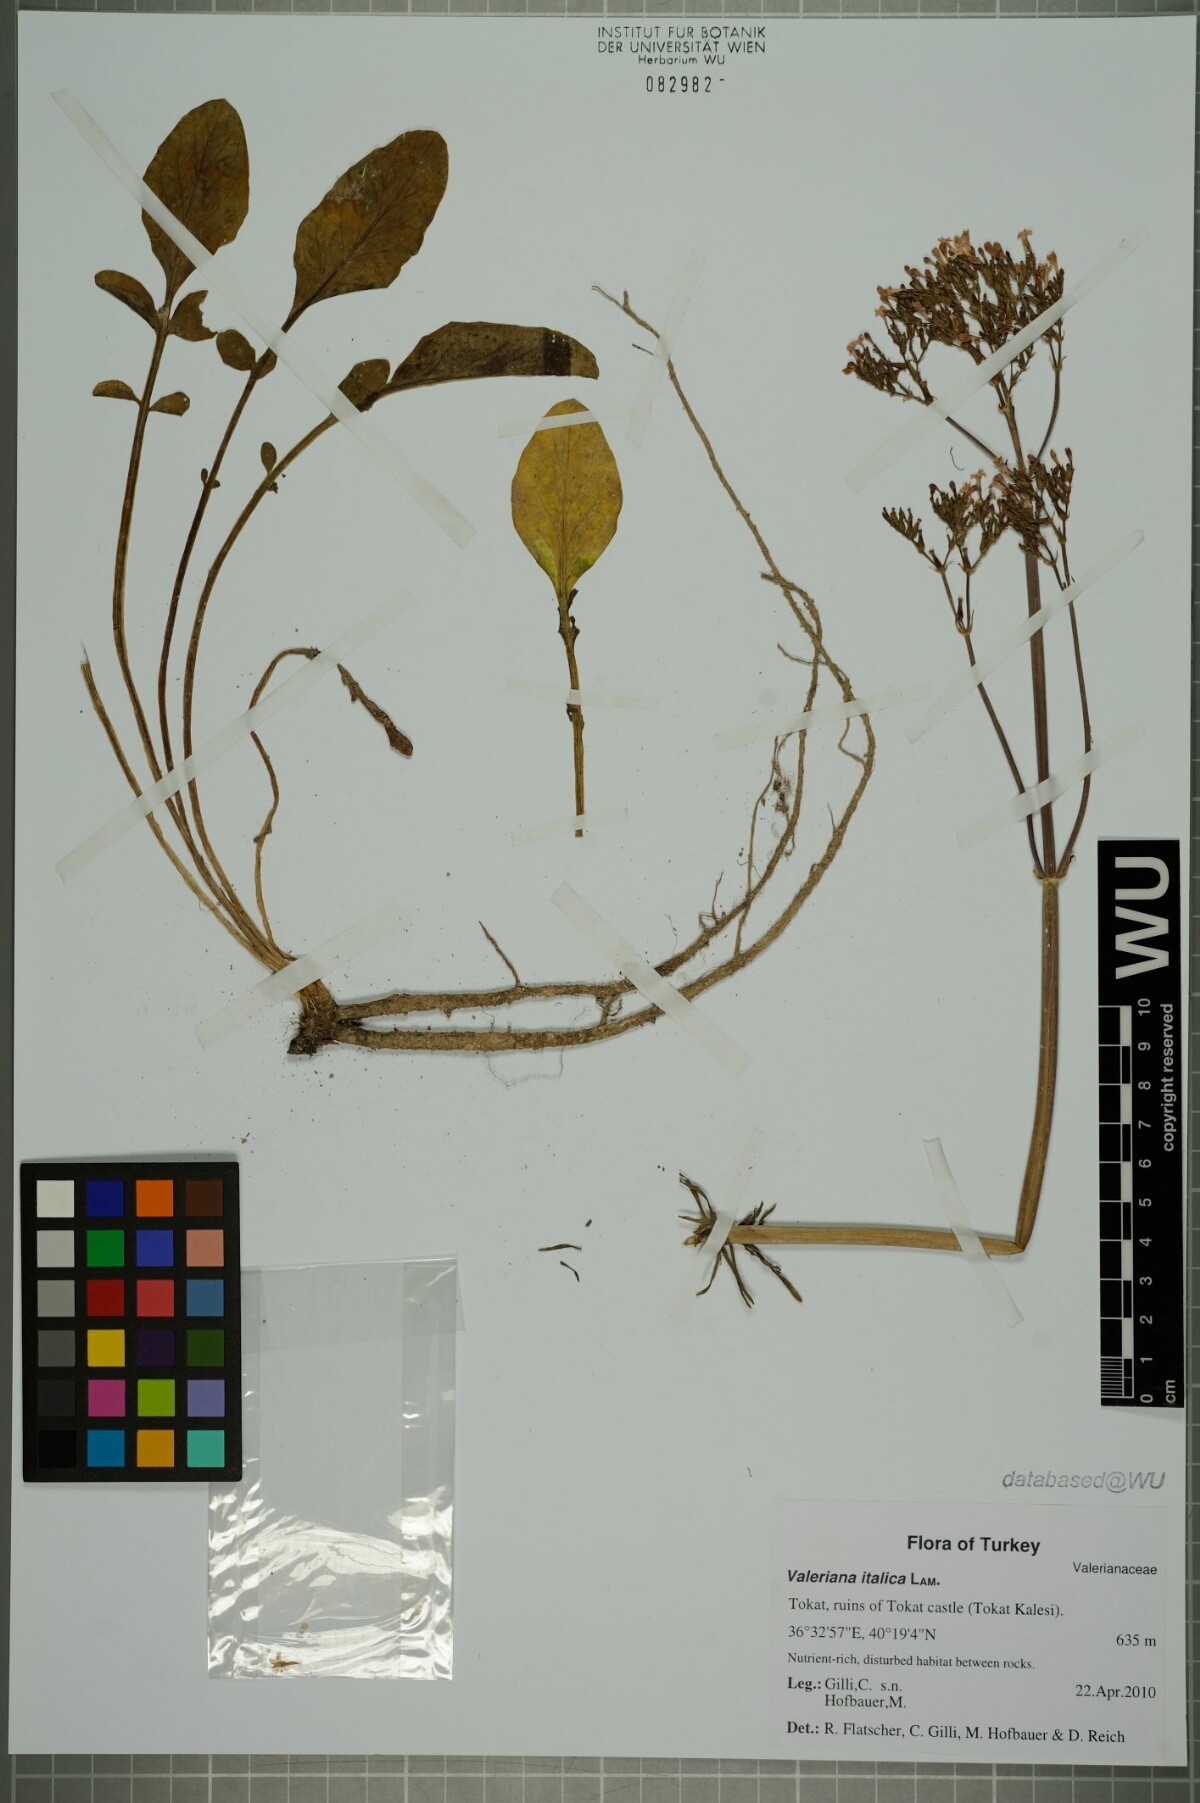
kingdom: Plantae
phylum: Tracheophyta
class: Magnoliopsida
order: Dipsacales
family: Caprifoliaceae
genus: Valeriana
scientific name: Valeriana dioscoridis
